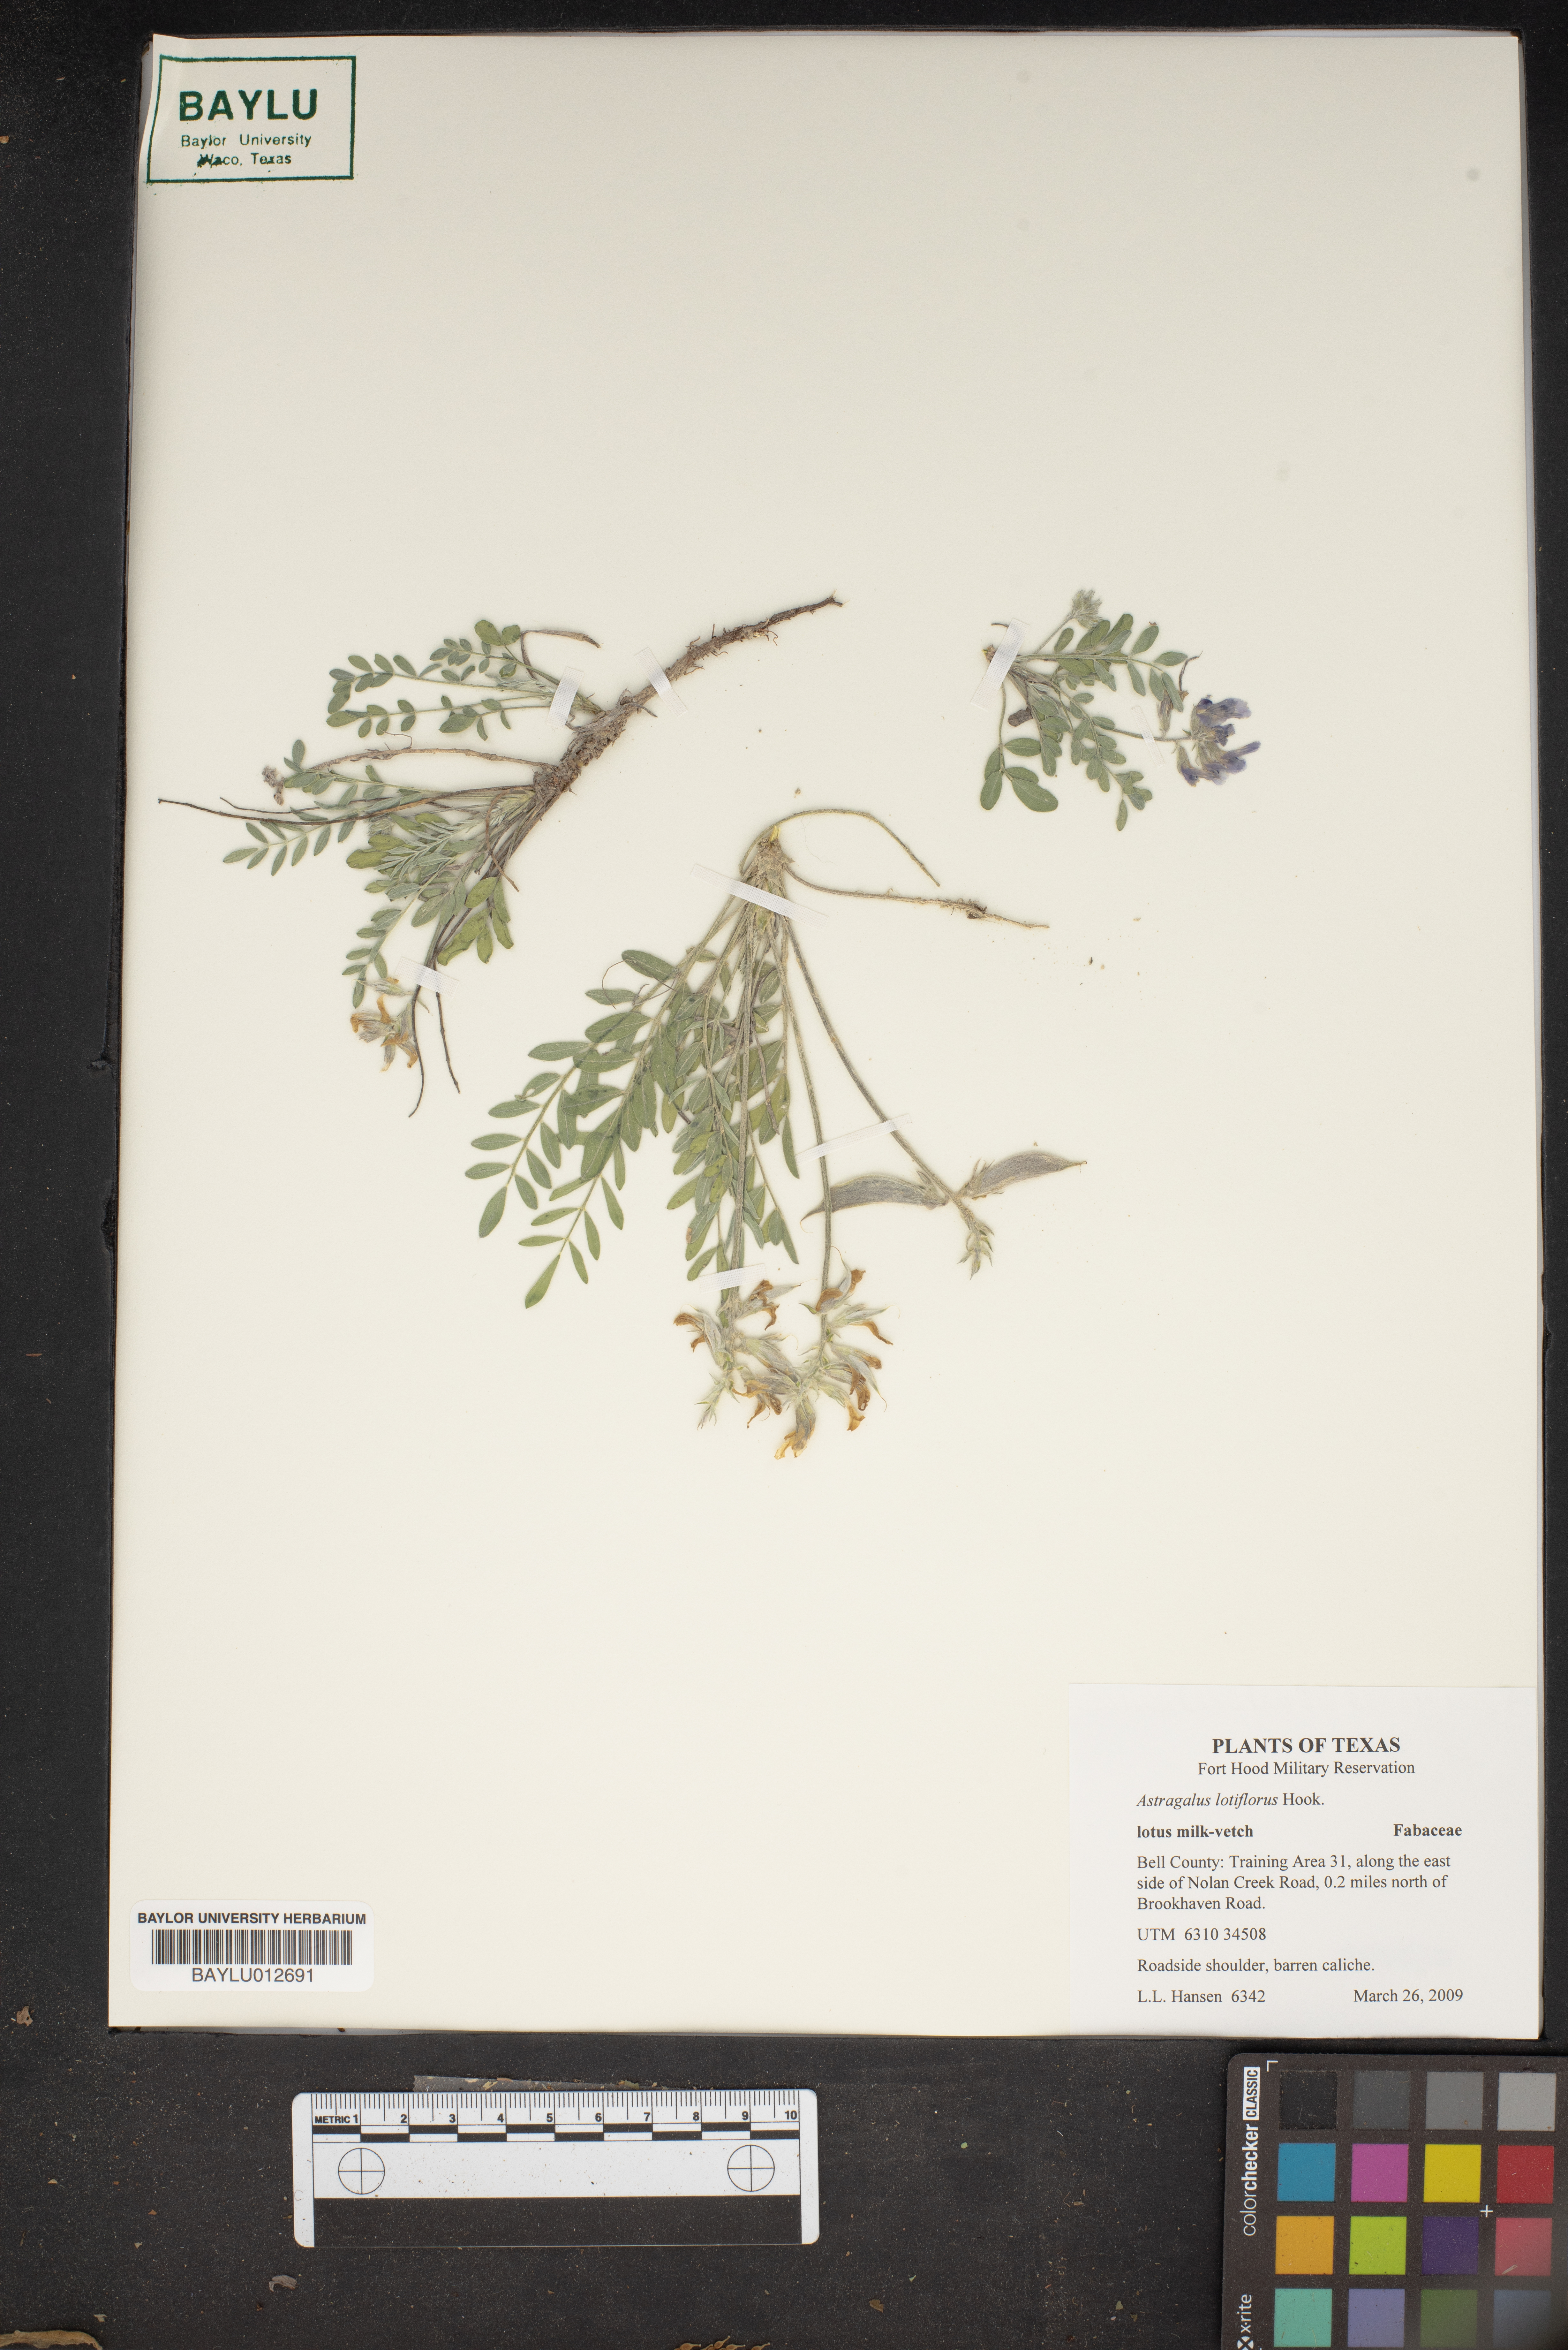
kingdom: Plantae
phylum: Tracheophyta
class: Magnoliopsida
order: Fabales
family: Fabaceae
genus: Astragalus
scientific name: Astragalus lotiflorus
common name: Lotus milk-vetch
